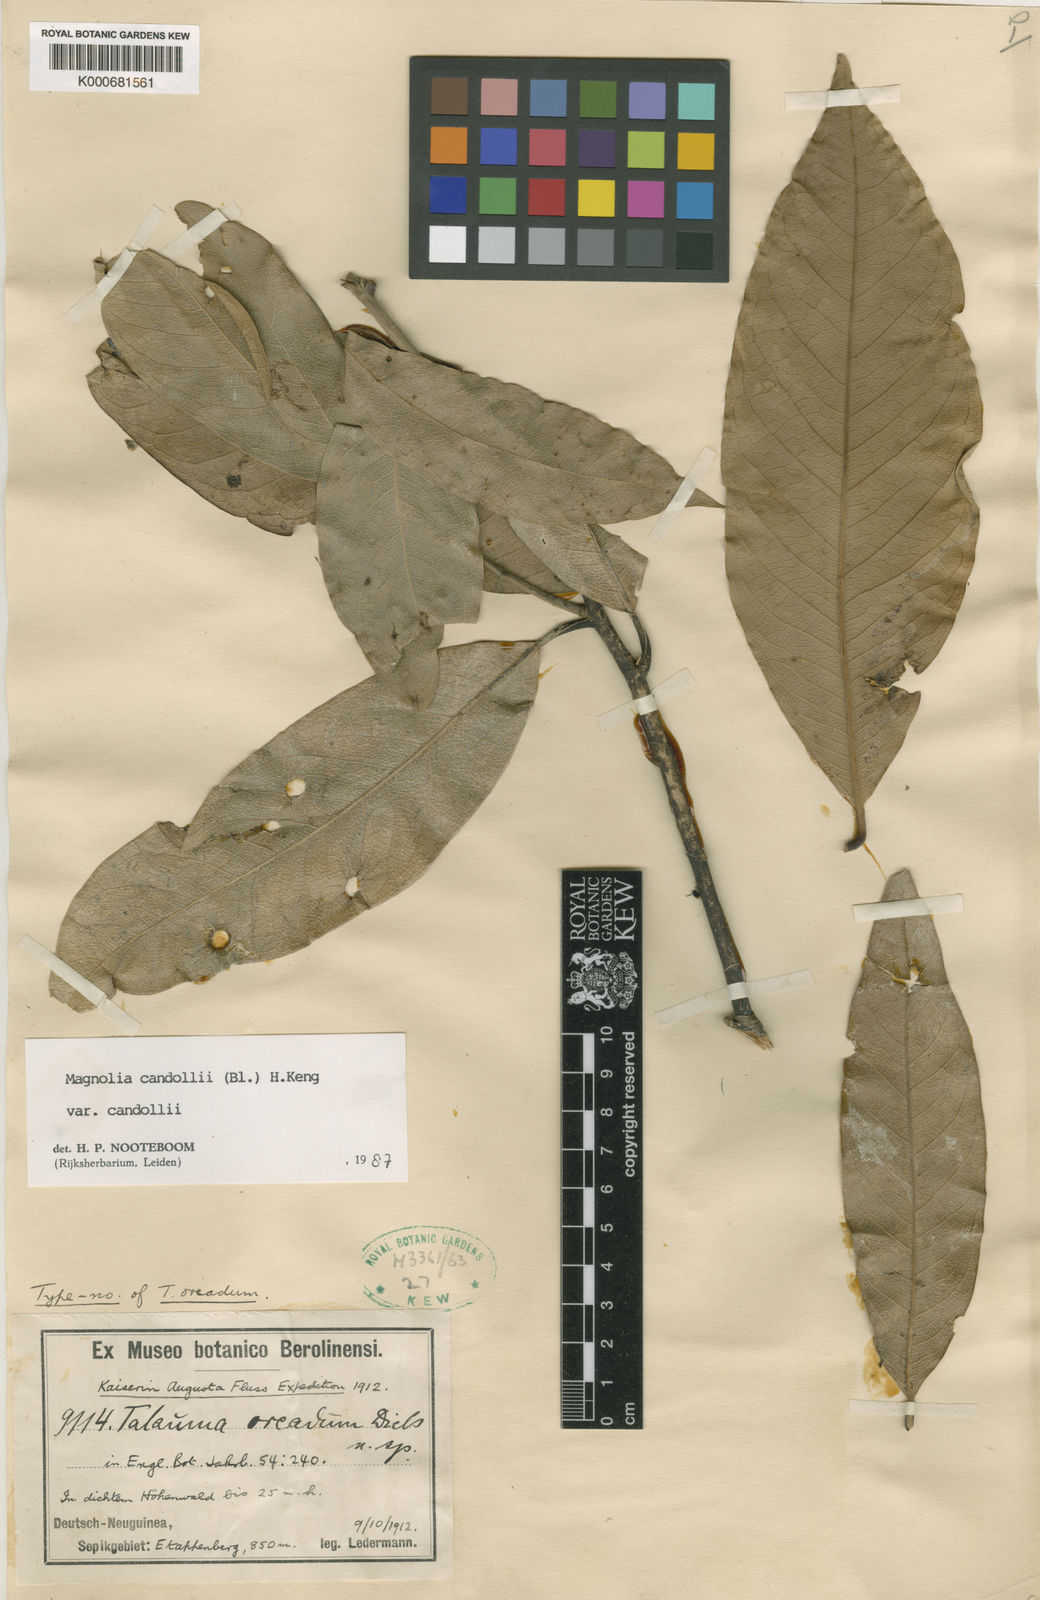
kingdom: Plantae
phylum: Tracheophyta
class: Magnoliopsida
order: Magnoliales
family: Magnoliaceae
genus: Magnolia
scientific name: Magnolia liliifera
